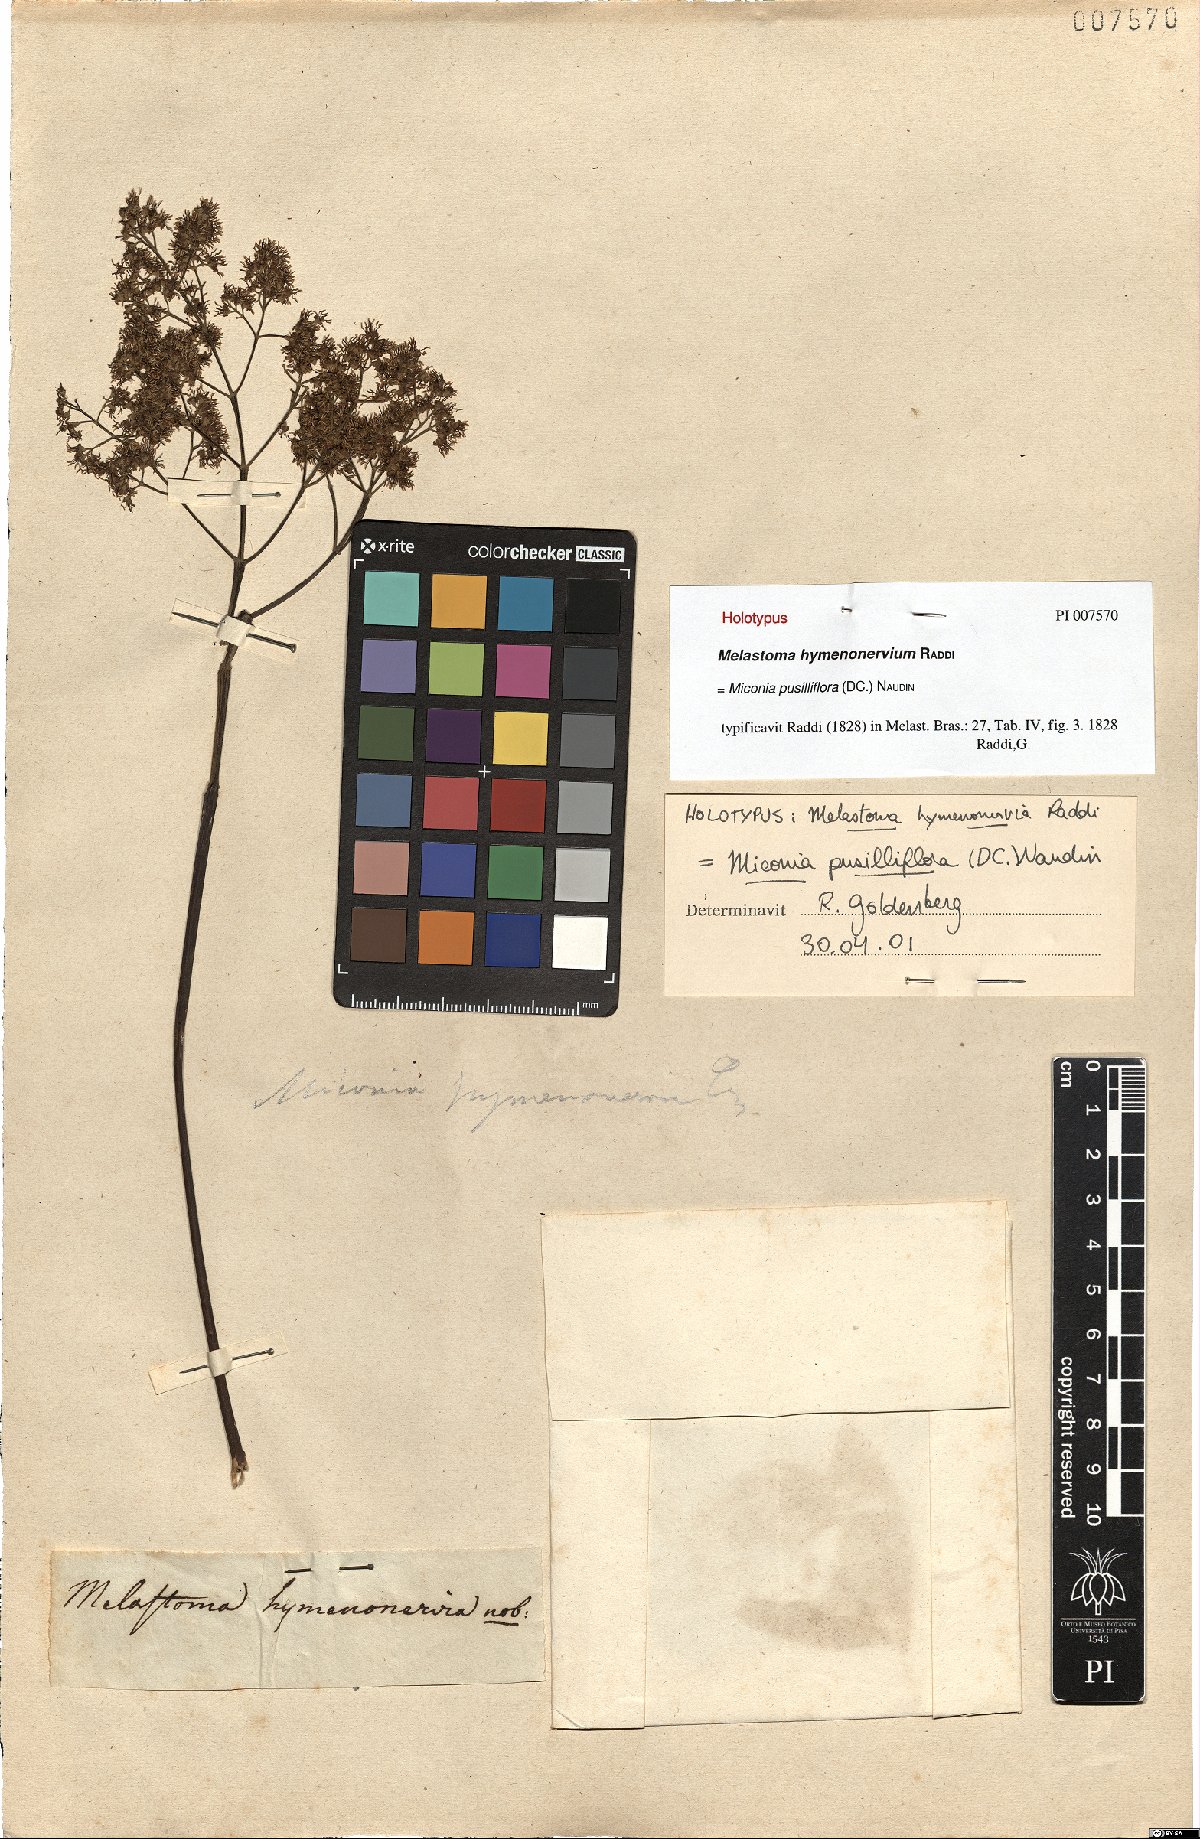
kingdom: Plantae
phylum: Tracheophyta
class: Magnoliopsida
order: Myrtales
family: Melastomataceae
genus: Miconia
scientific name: Miconia pusilliflora
